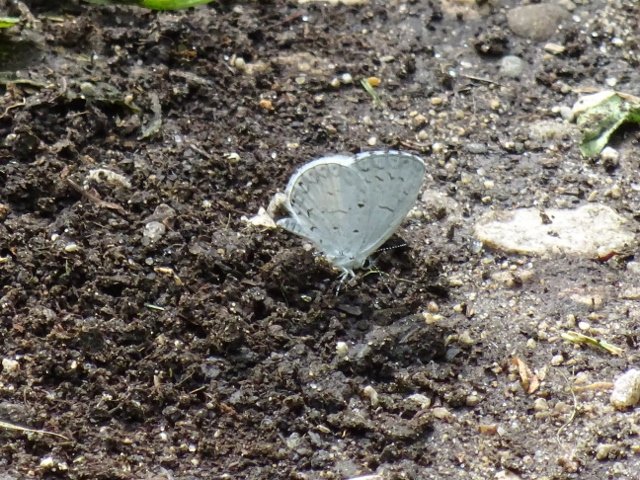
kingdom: Animalia
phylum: Arthropoda
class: Insecta
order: Lepidoptera
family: Lycaenidae
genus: Celastrina
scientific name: Celastrina
